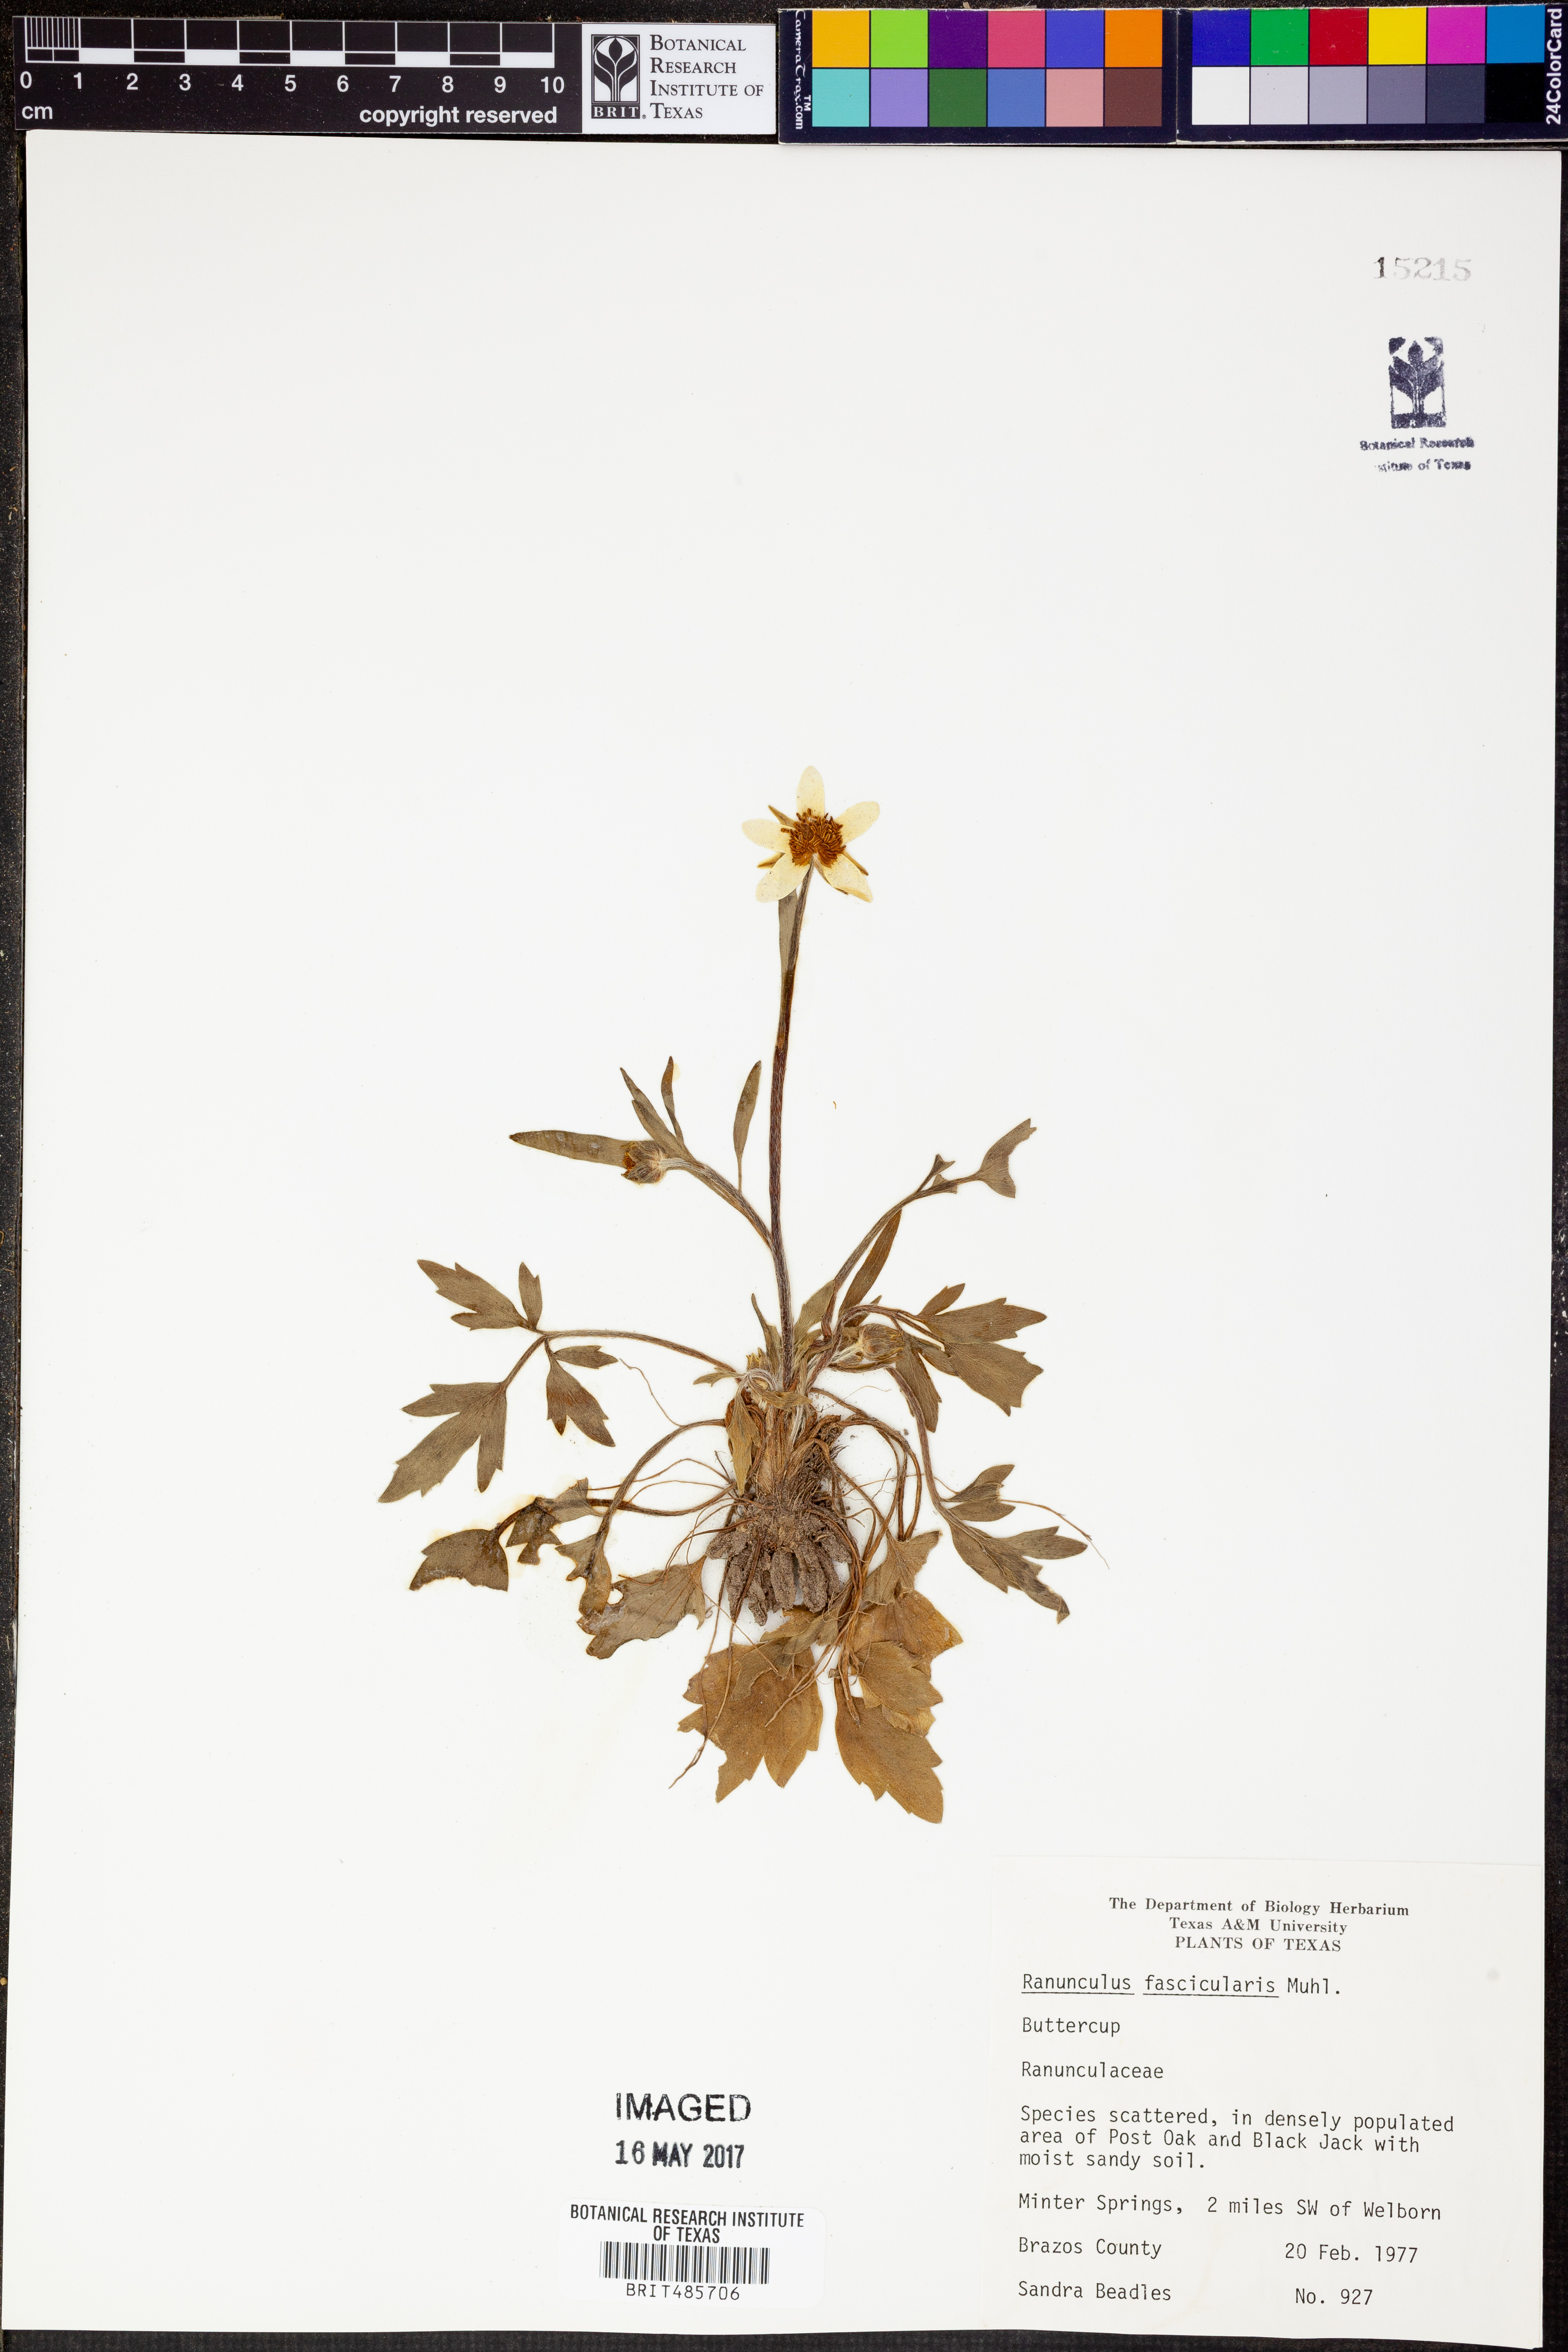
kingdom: Plantae
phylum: Tracheophyta
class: Magnoliopsida
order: Ranunculales
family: Ranunculaceae
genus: Ranunculus
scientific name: Ranunculus fascicularis
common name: Early buttercup
